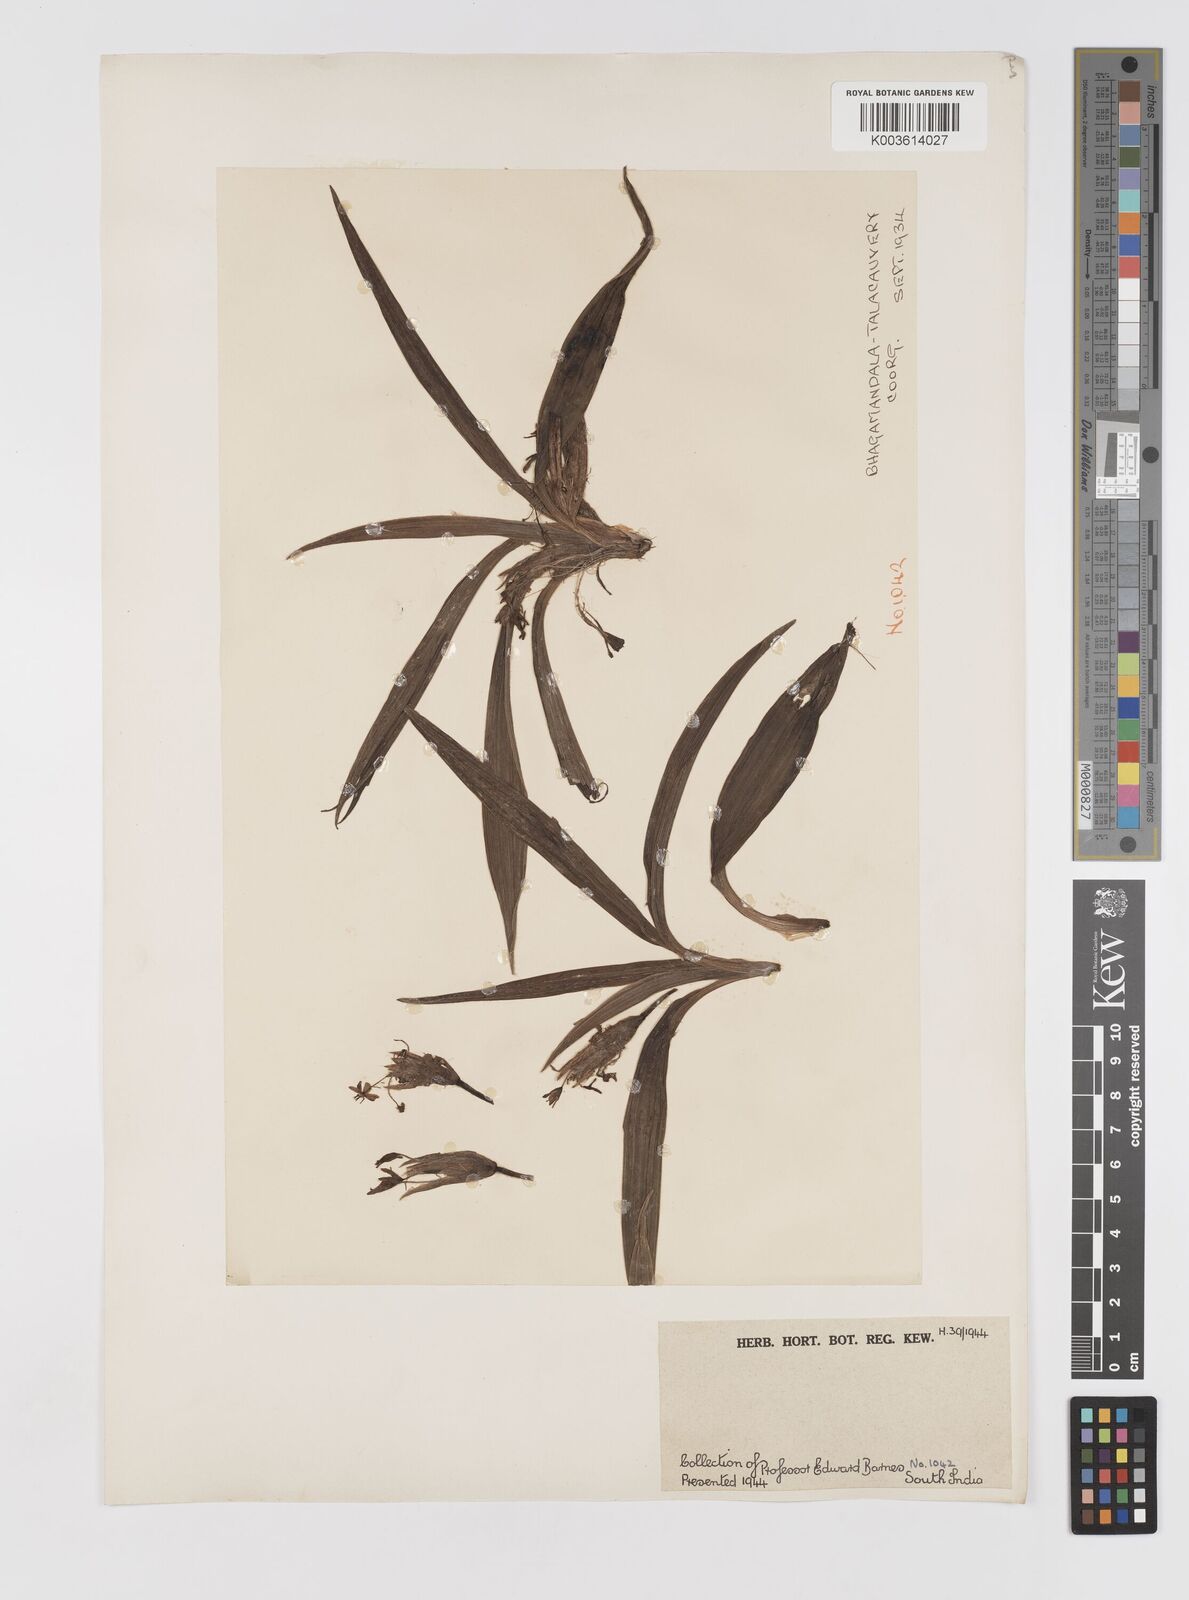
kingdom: Plantae
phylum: Tracheophyta
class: Liliopsida
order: Asparagales
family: Hypoxidaceae
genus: Curculigo
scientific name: Curculigo orchioides
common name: Golden eye-grass
